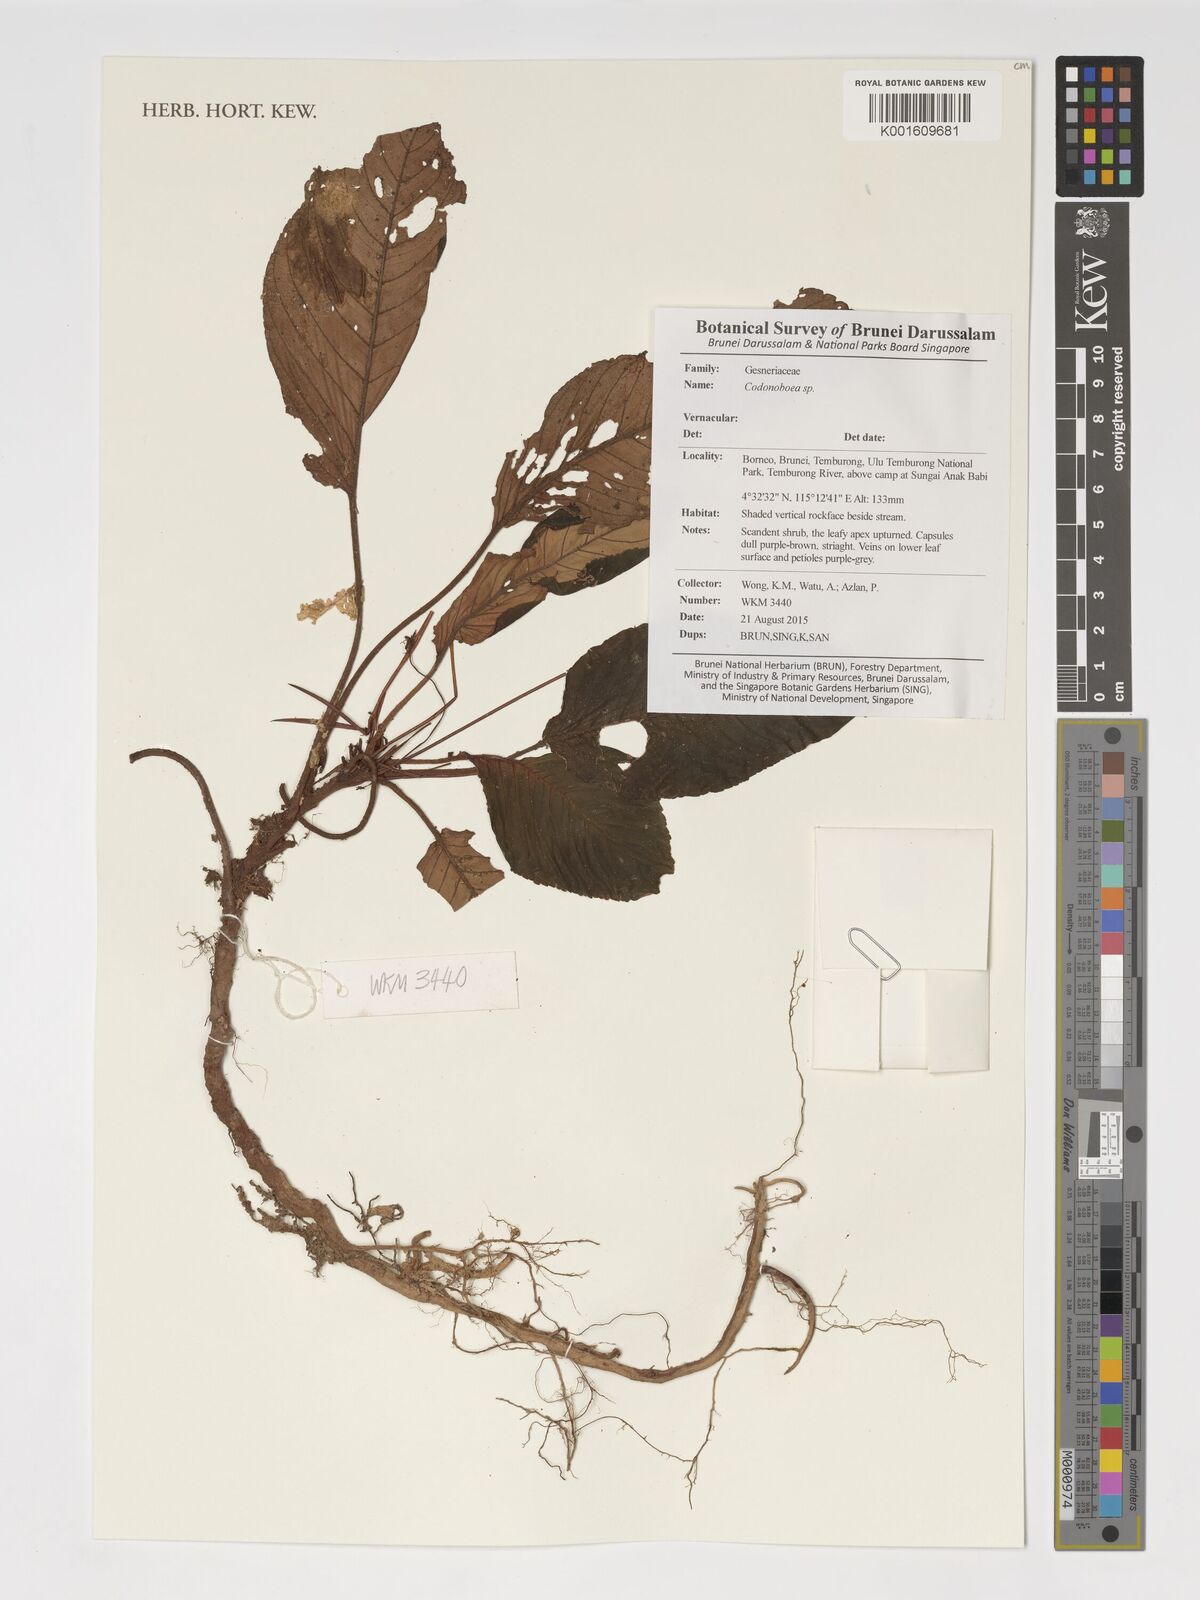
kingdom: Plantae
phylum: Tracheophyta
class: Magnoliopsida
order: Lamiales
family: Gesneriaceae
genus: Codonoboea
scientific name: Codonoboea
